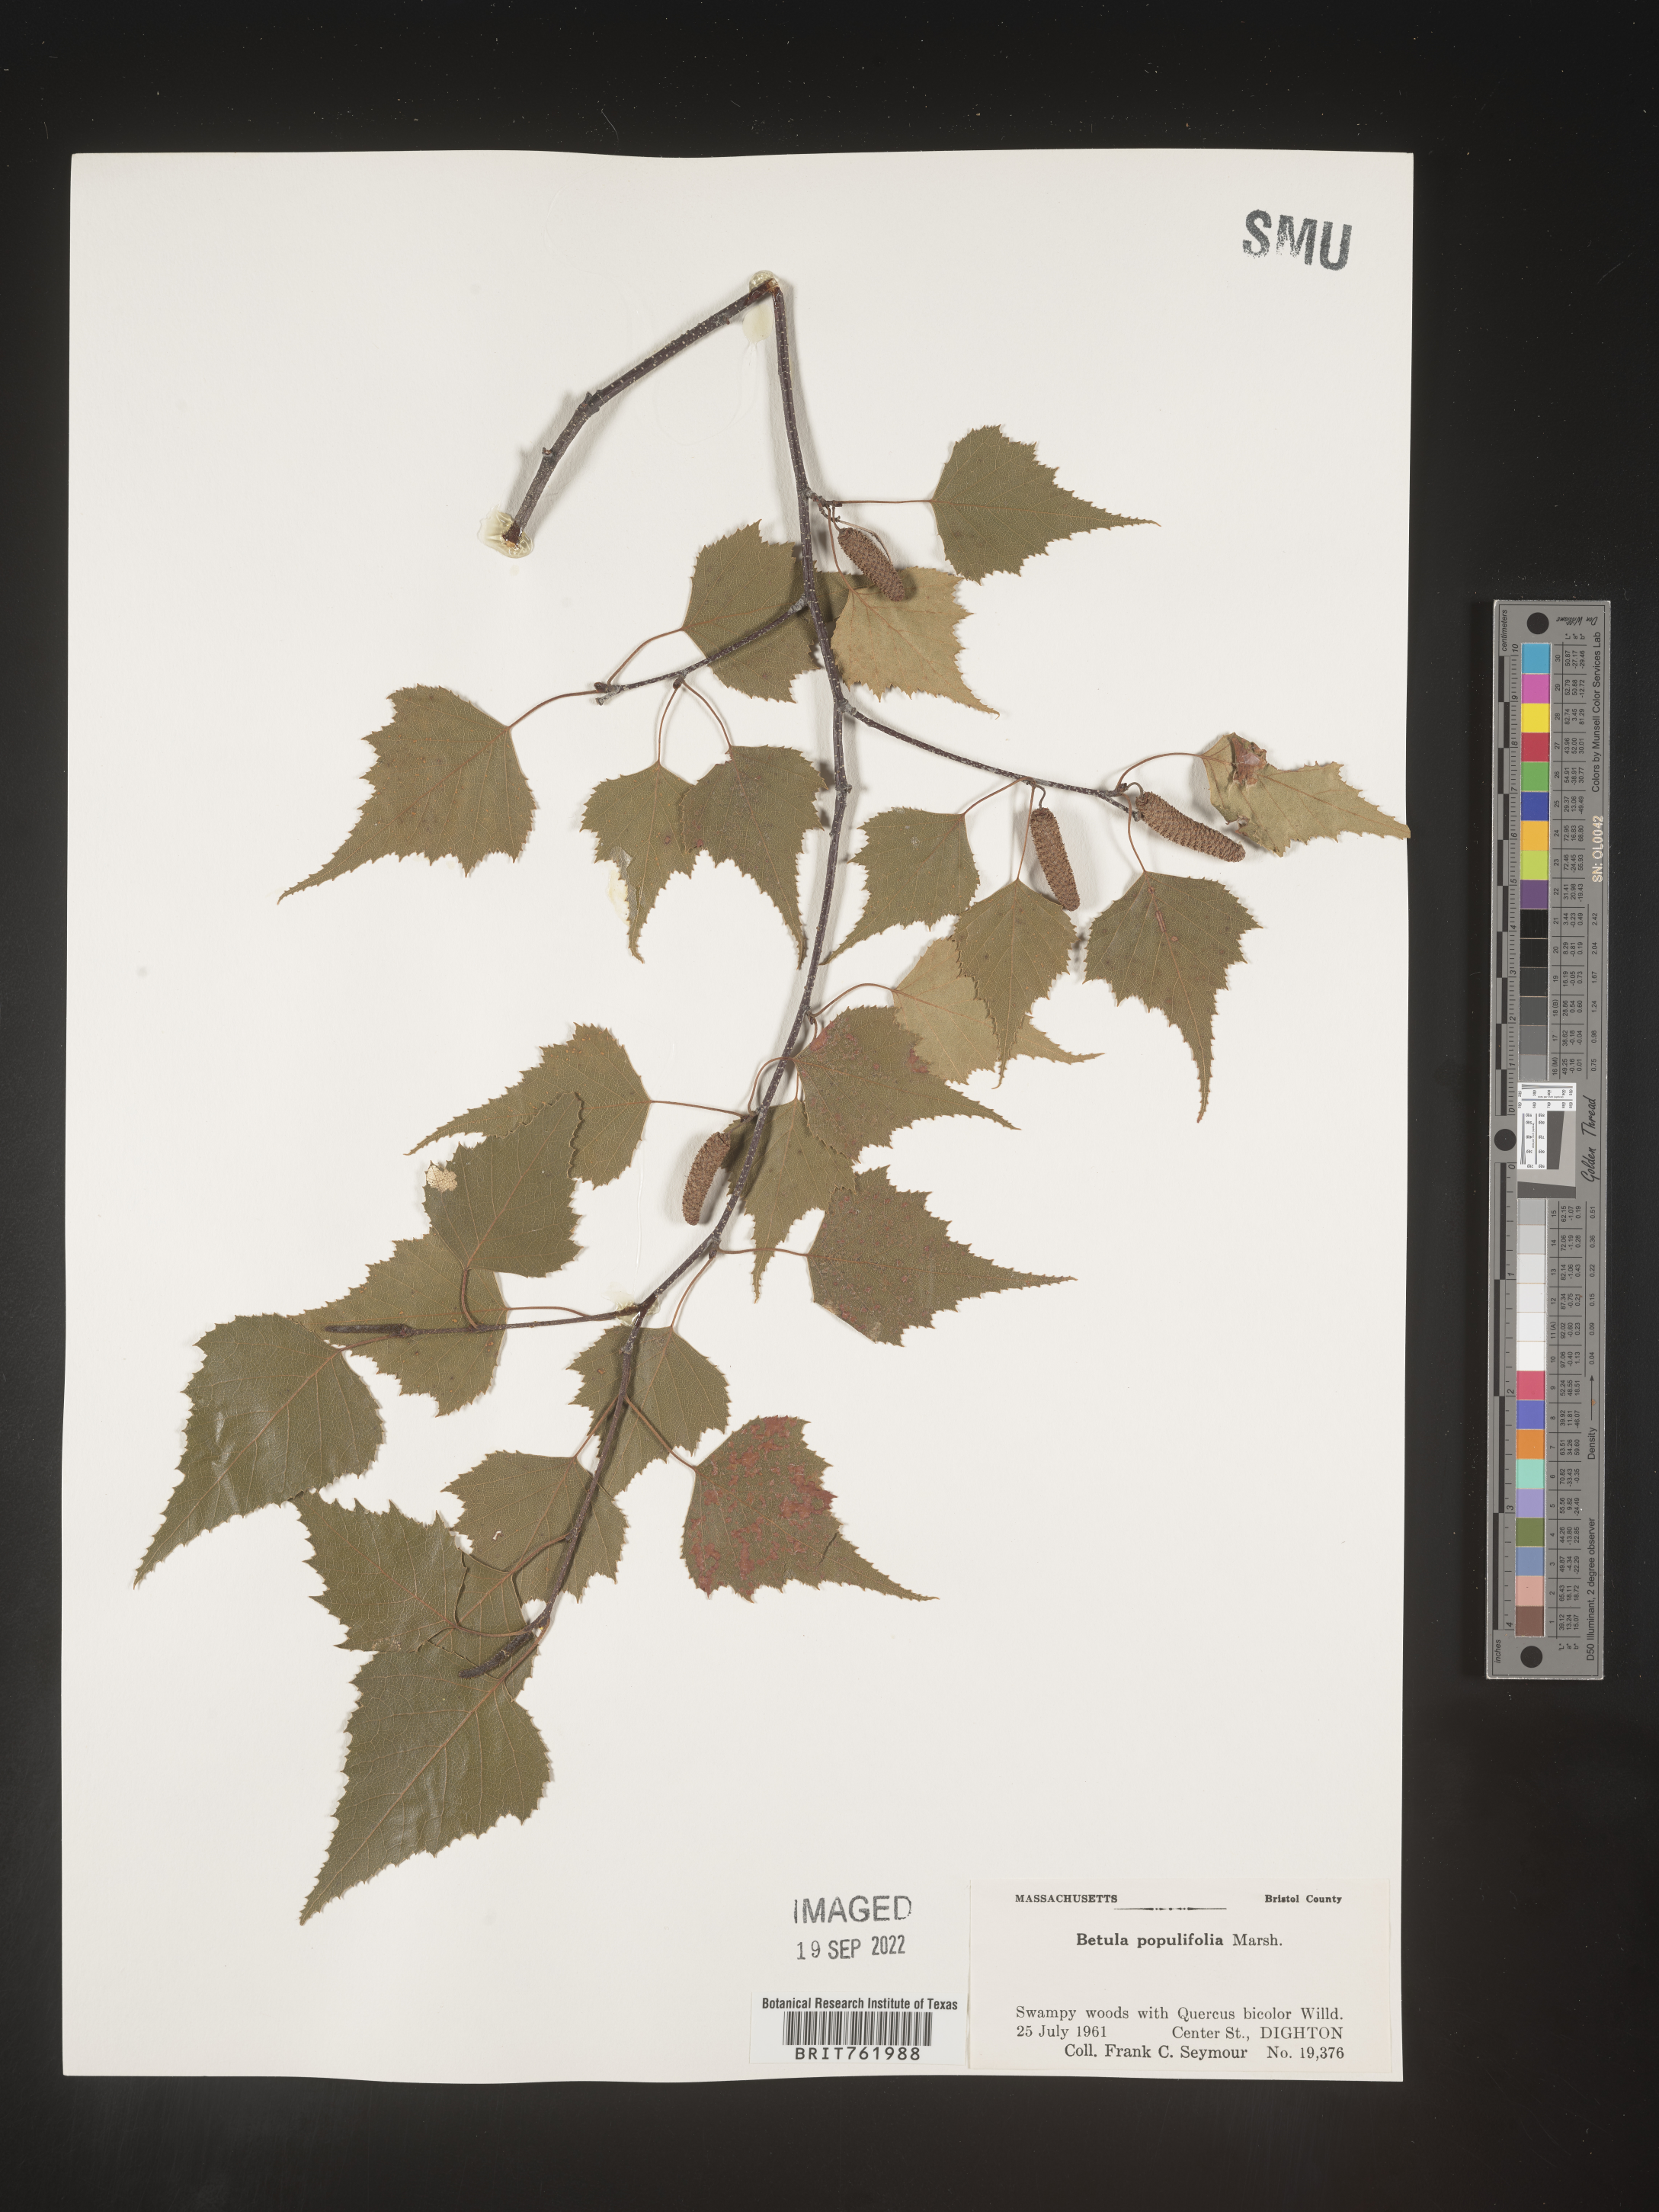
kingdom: Plantae
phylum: Tracheophyta
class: Magnoliopsida
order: Fagales
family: Betulaceae
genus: Betula
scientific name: Betula populifolia
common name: Fire birch
